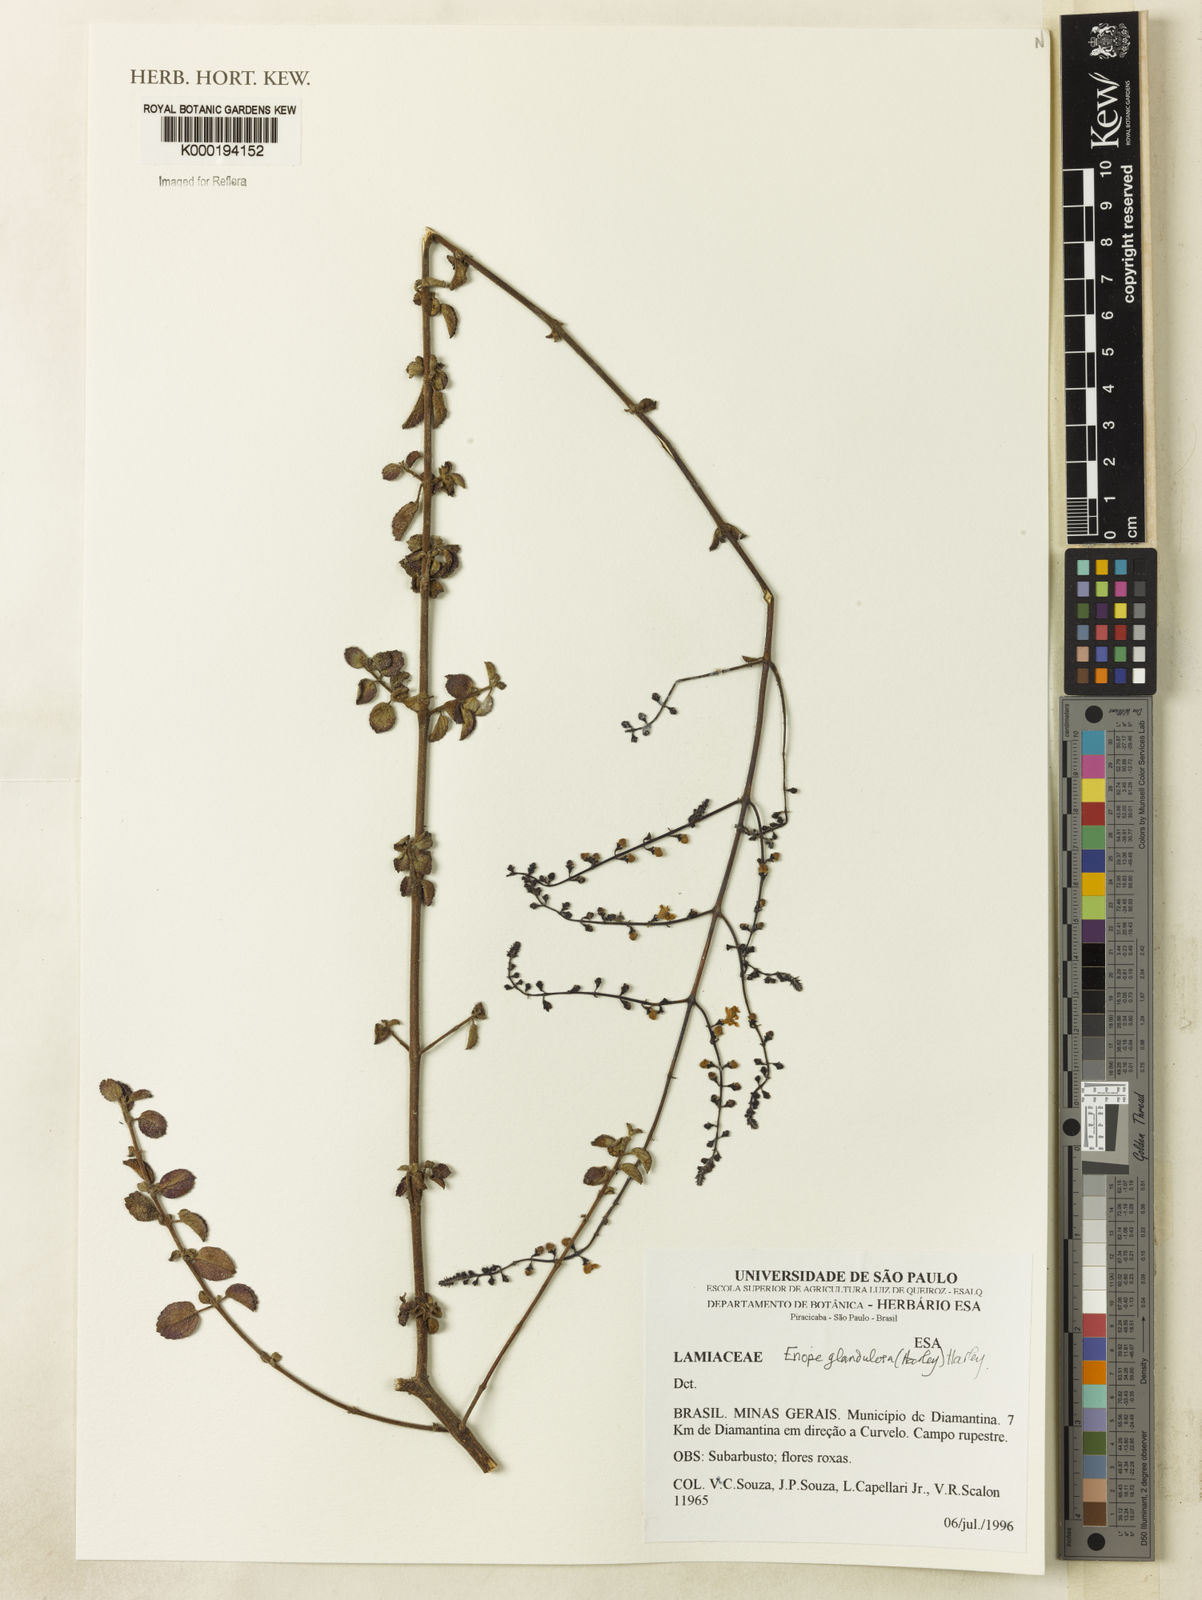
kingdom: Plantae
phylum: Tracheophyta
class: Magnoliopsida
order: Lamiales
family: Lamiaceae
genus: Eriope
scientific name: Eriope glandulosa
